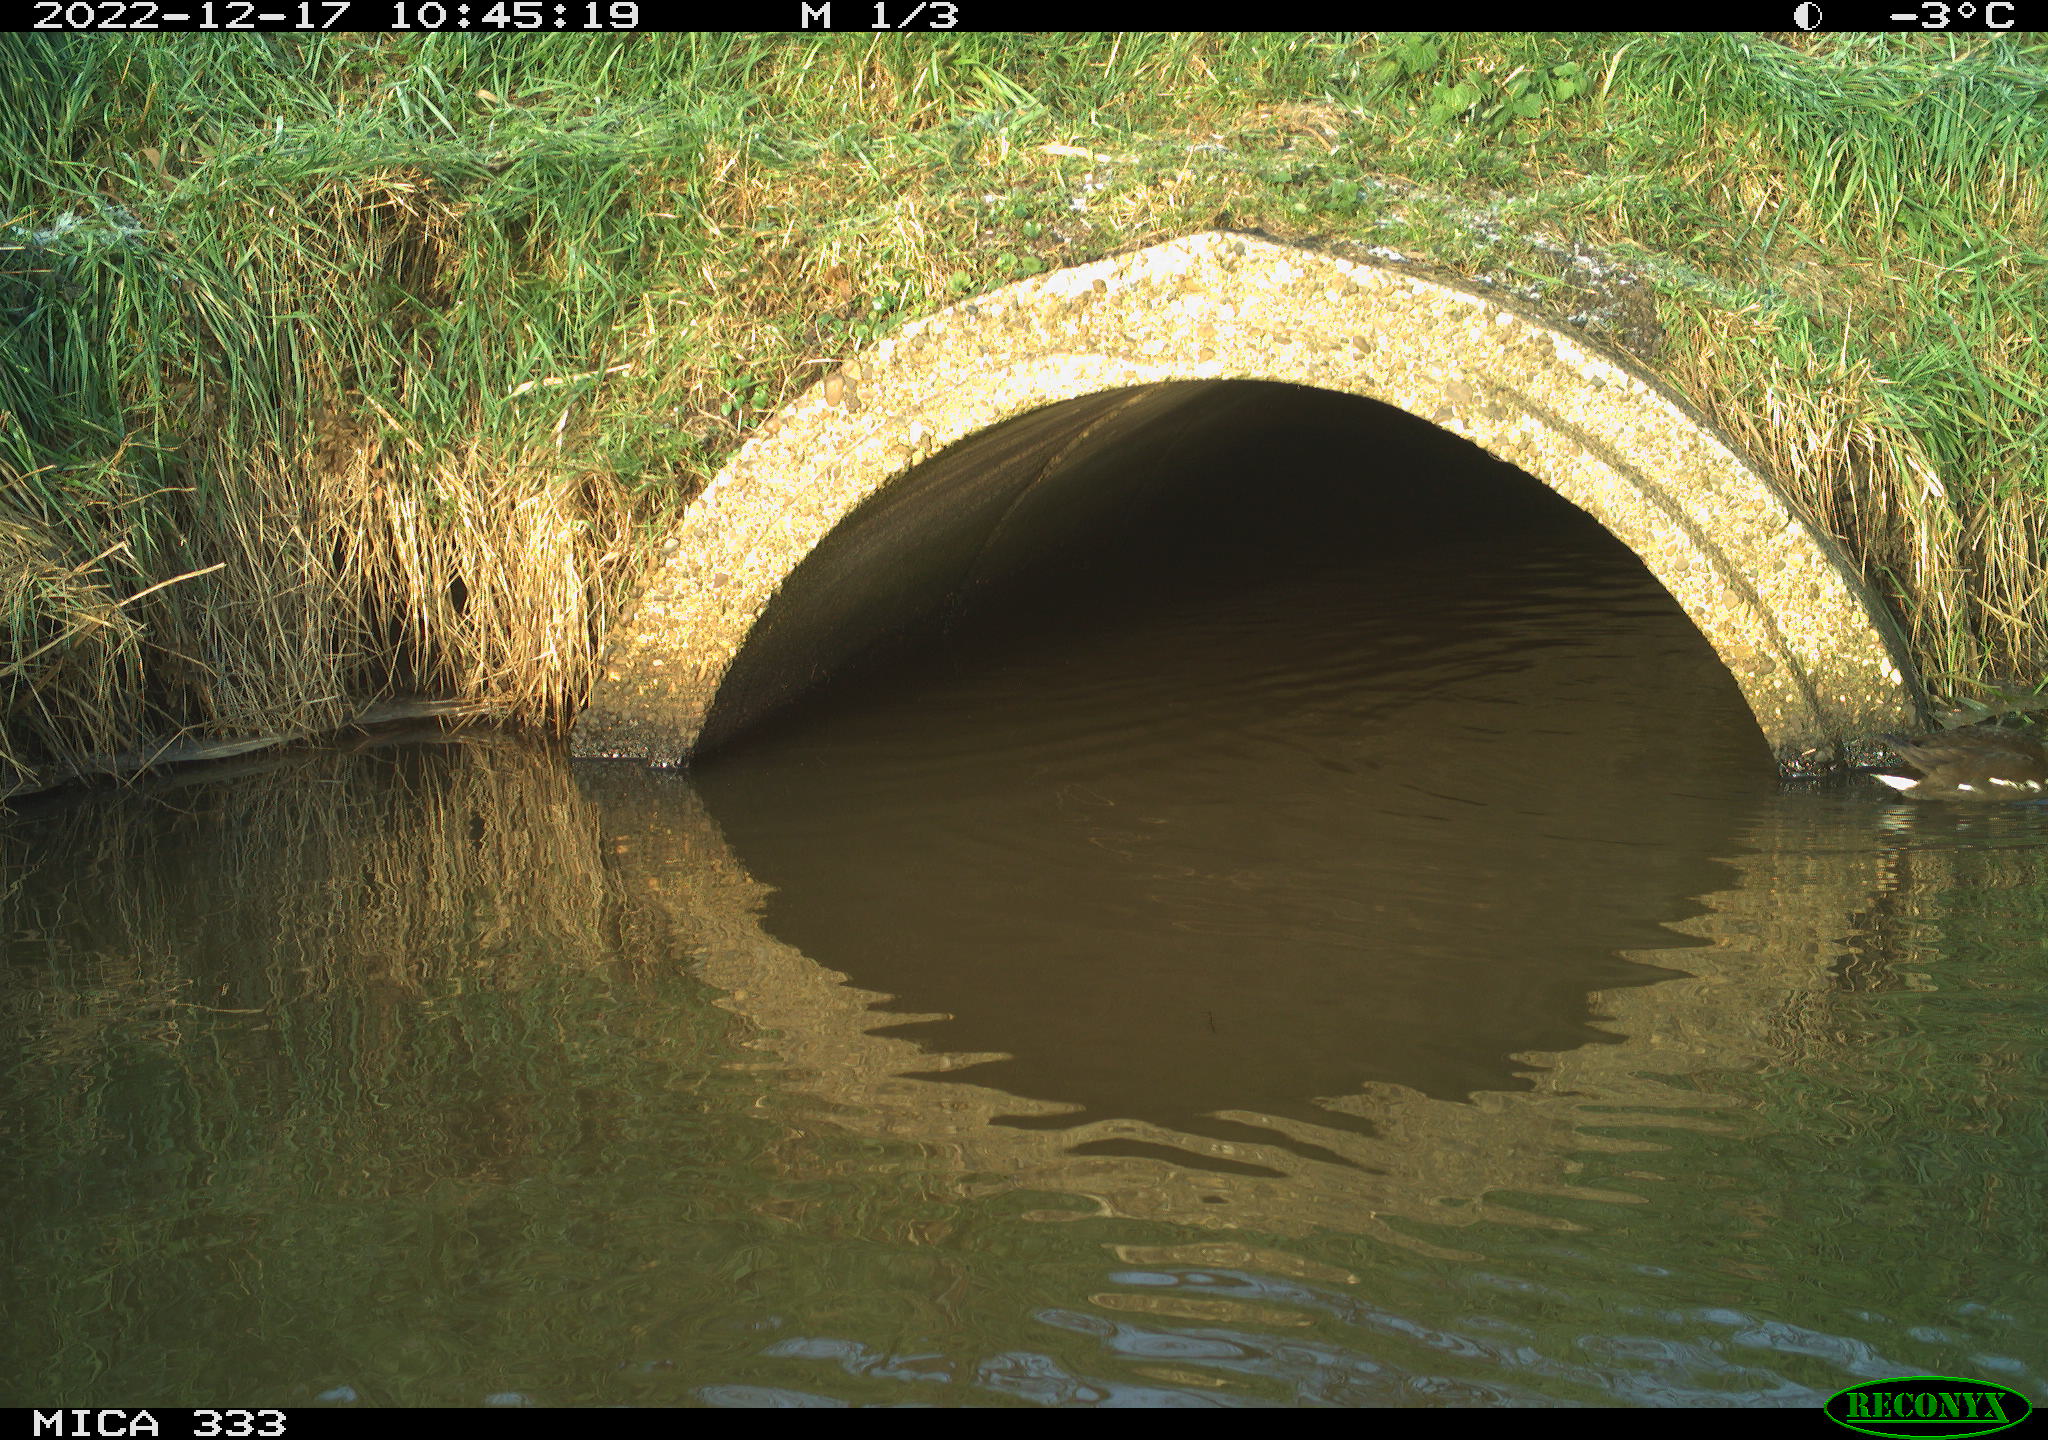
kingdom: Animalia
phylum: Chordata
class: Aves
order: Gruiformes
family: Rallidae
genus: Gallinula
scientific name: Gallinula chloropus
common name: Common moorhen
